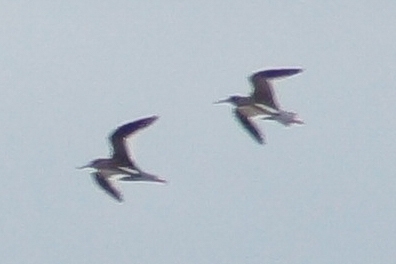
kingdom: Animalia
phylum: Chordata
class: Aves
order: Charadriiformes
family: Scolopacidae
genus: Tringa
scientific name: Tringa totanus
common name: Rødben
